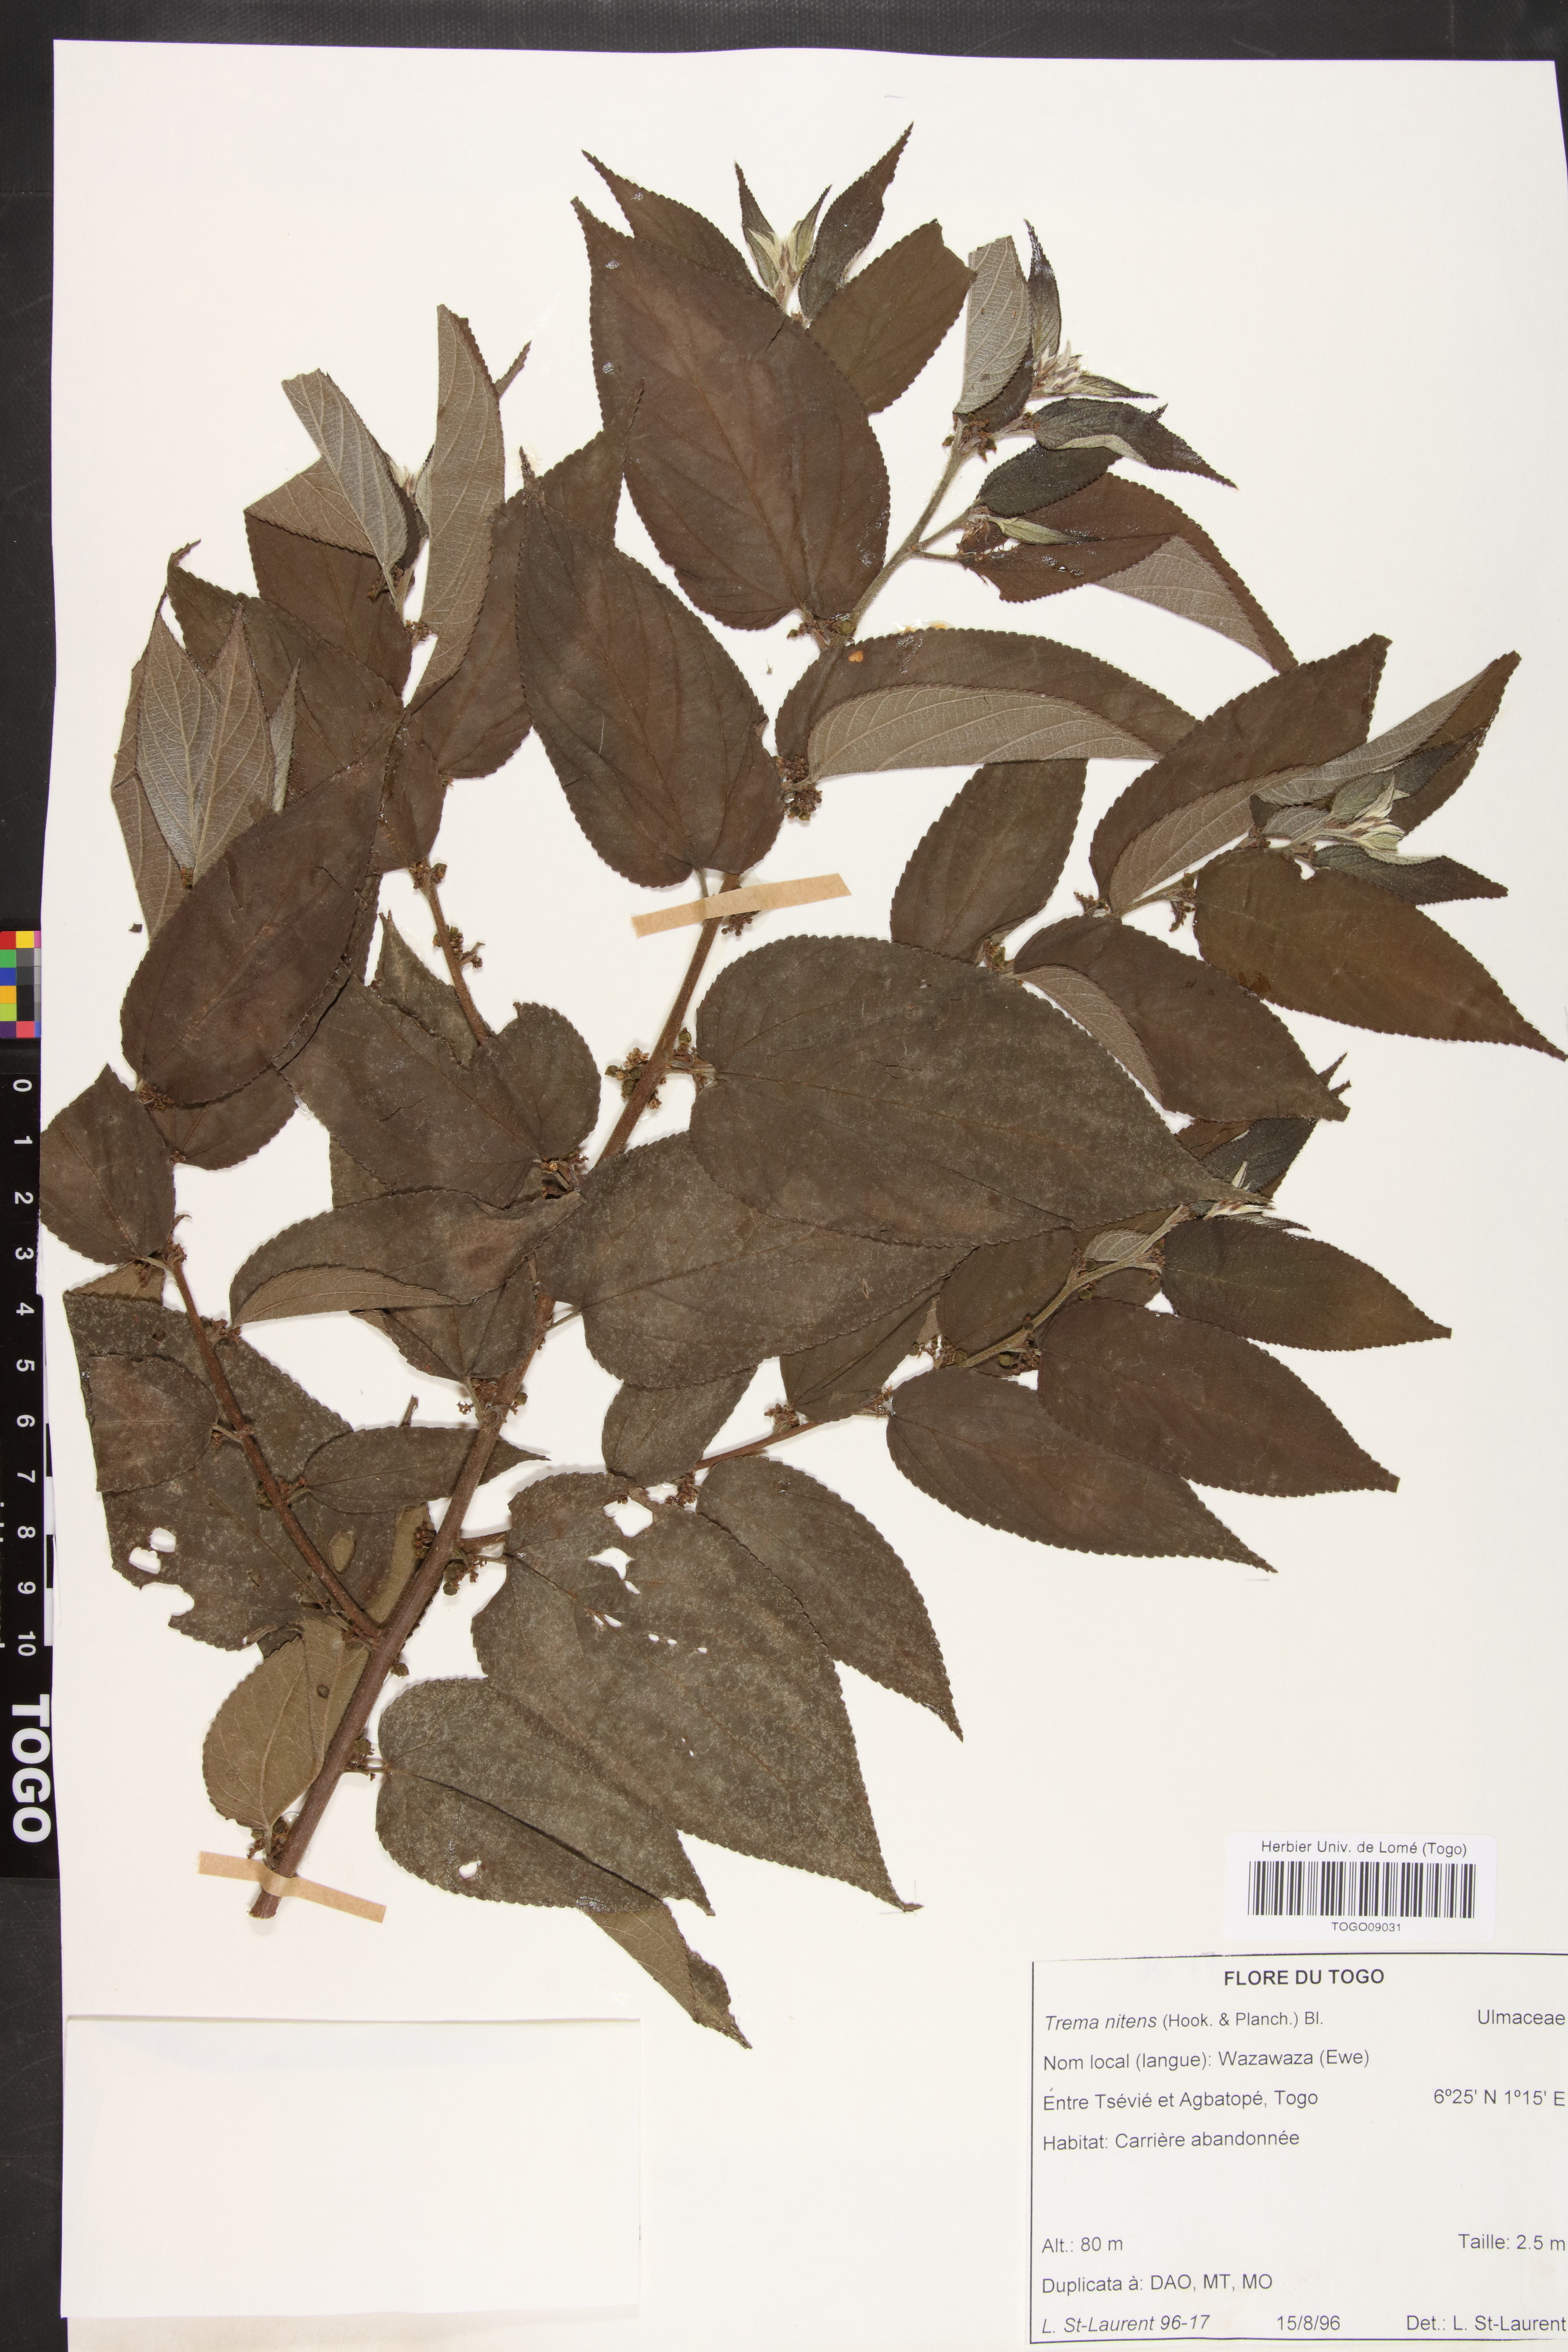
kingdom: Plantae
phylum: Tracheophyta
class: Magnoliopsida
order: Rosales
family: Cannabaceae
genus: Trema
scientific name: Trema orientale
